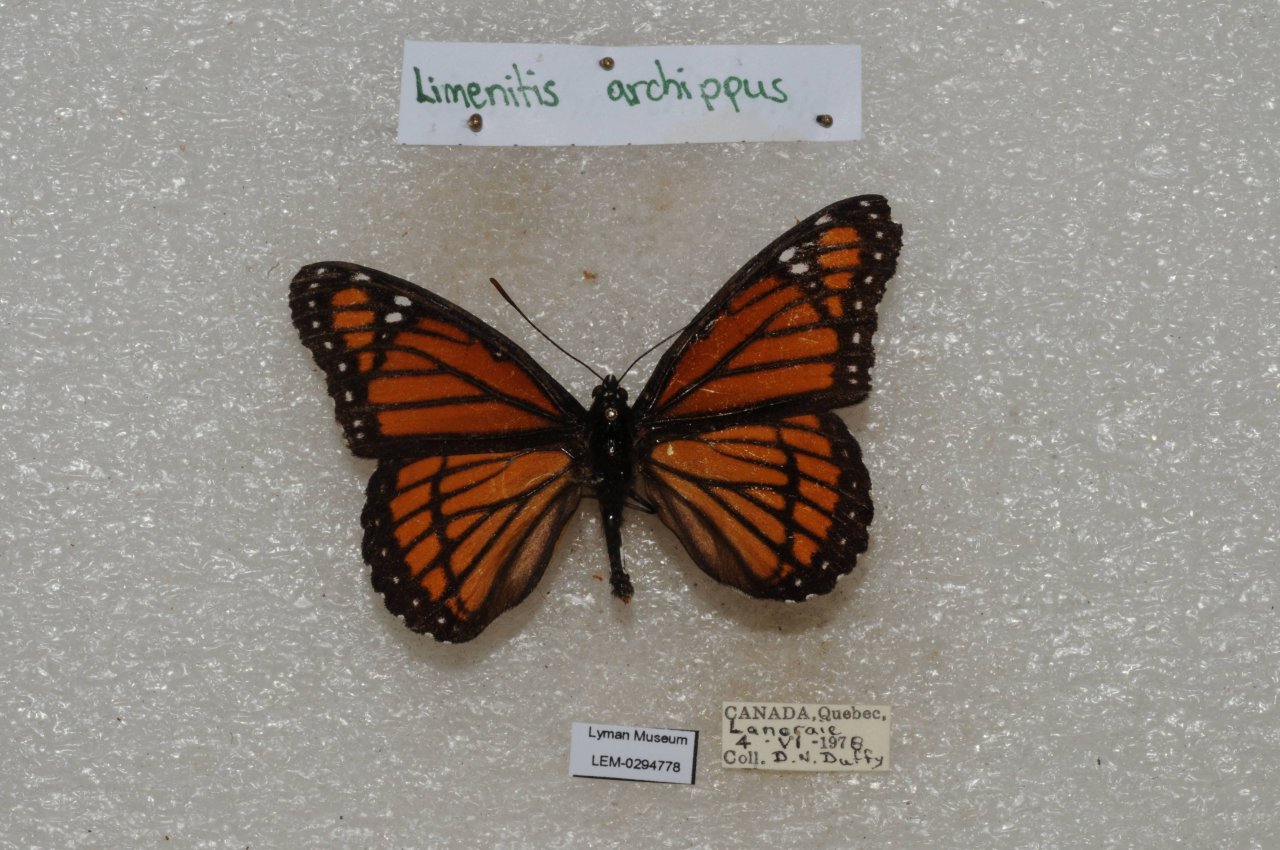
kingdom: Animalia
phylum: Arthropoda
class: Insecta
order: Lepidoptera
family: Nymphalidae
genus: Limenitis
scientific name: Limenitis archippus
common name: Viceroy
